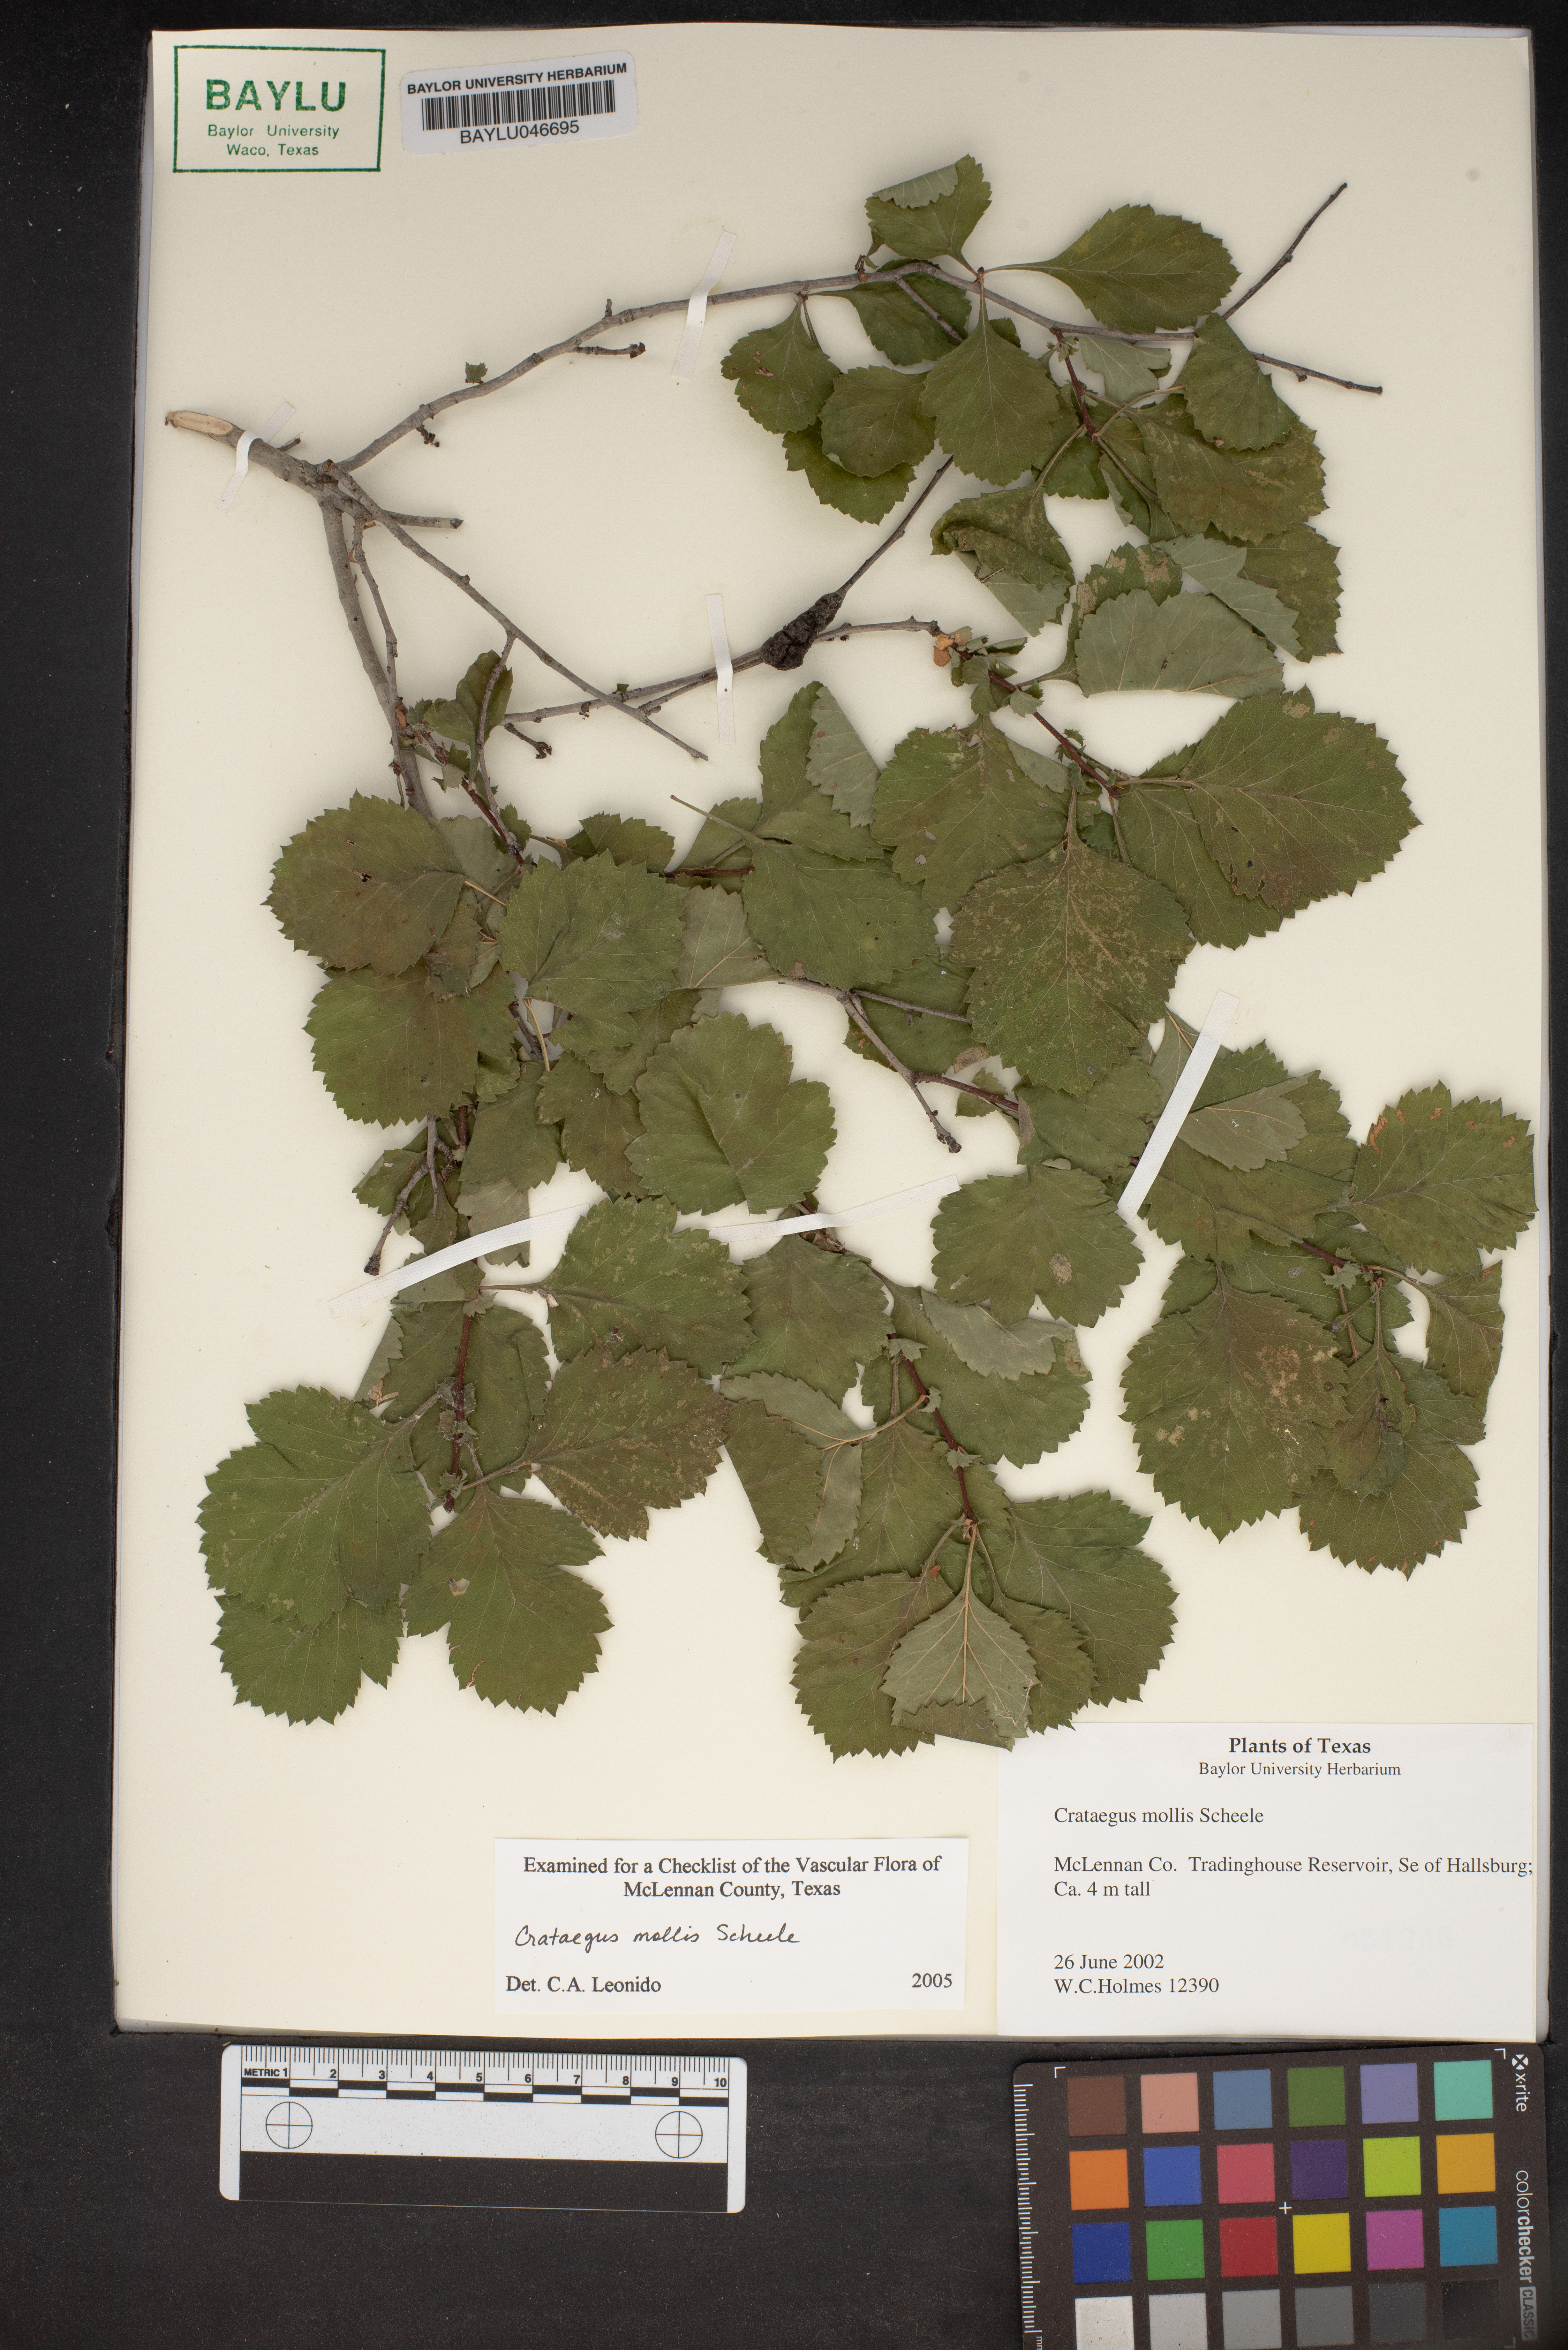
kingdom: Plantae
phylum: Tracheophyta
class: Magnoliopsida
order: Rosales
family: Rosaceae
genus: Crataegus
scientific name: Crataegus mollis
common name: Downy hawthorn
